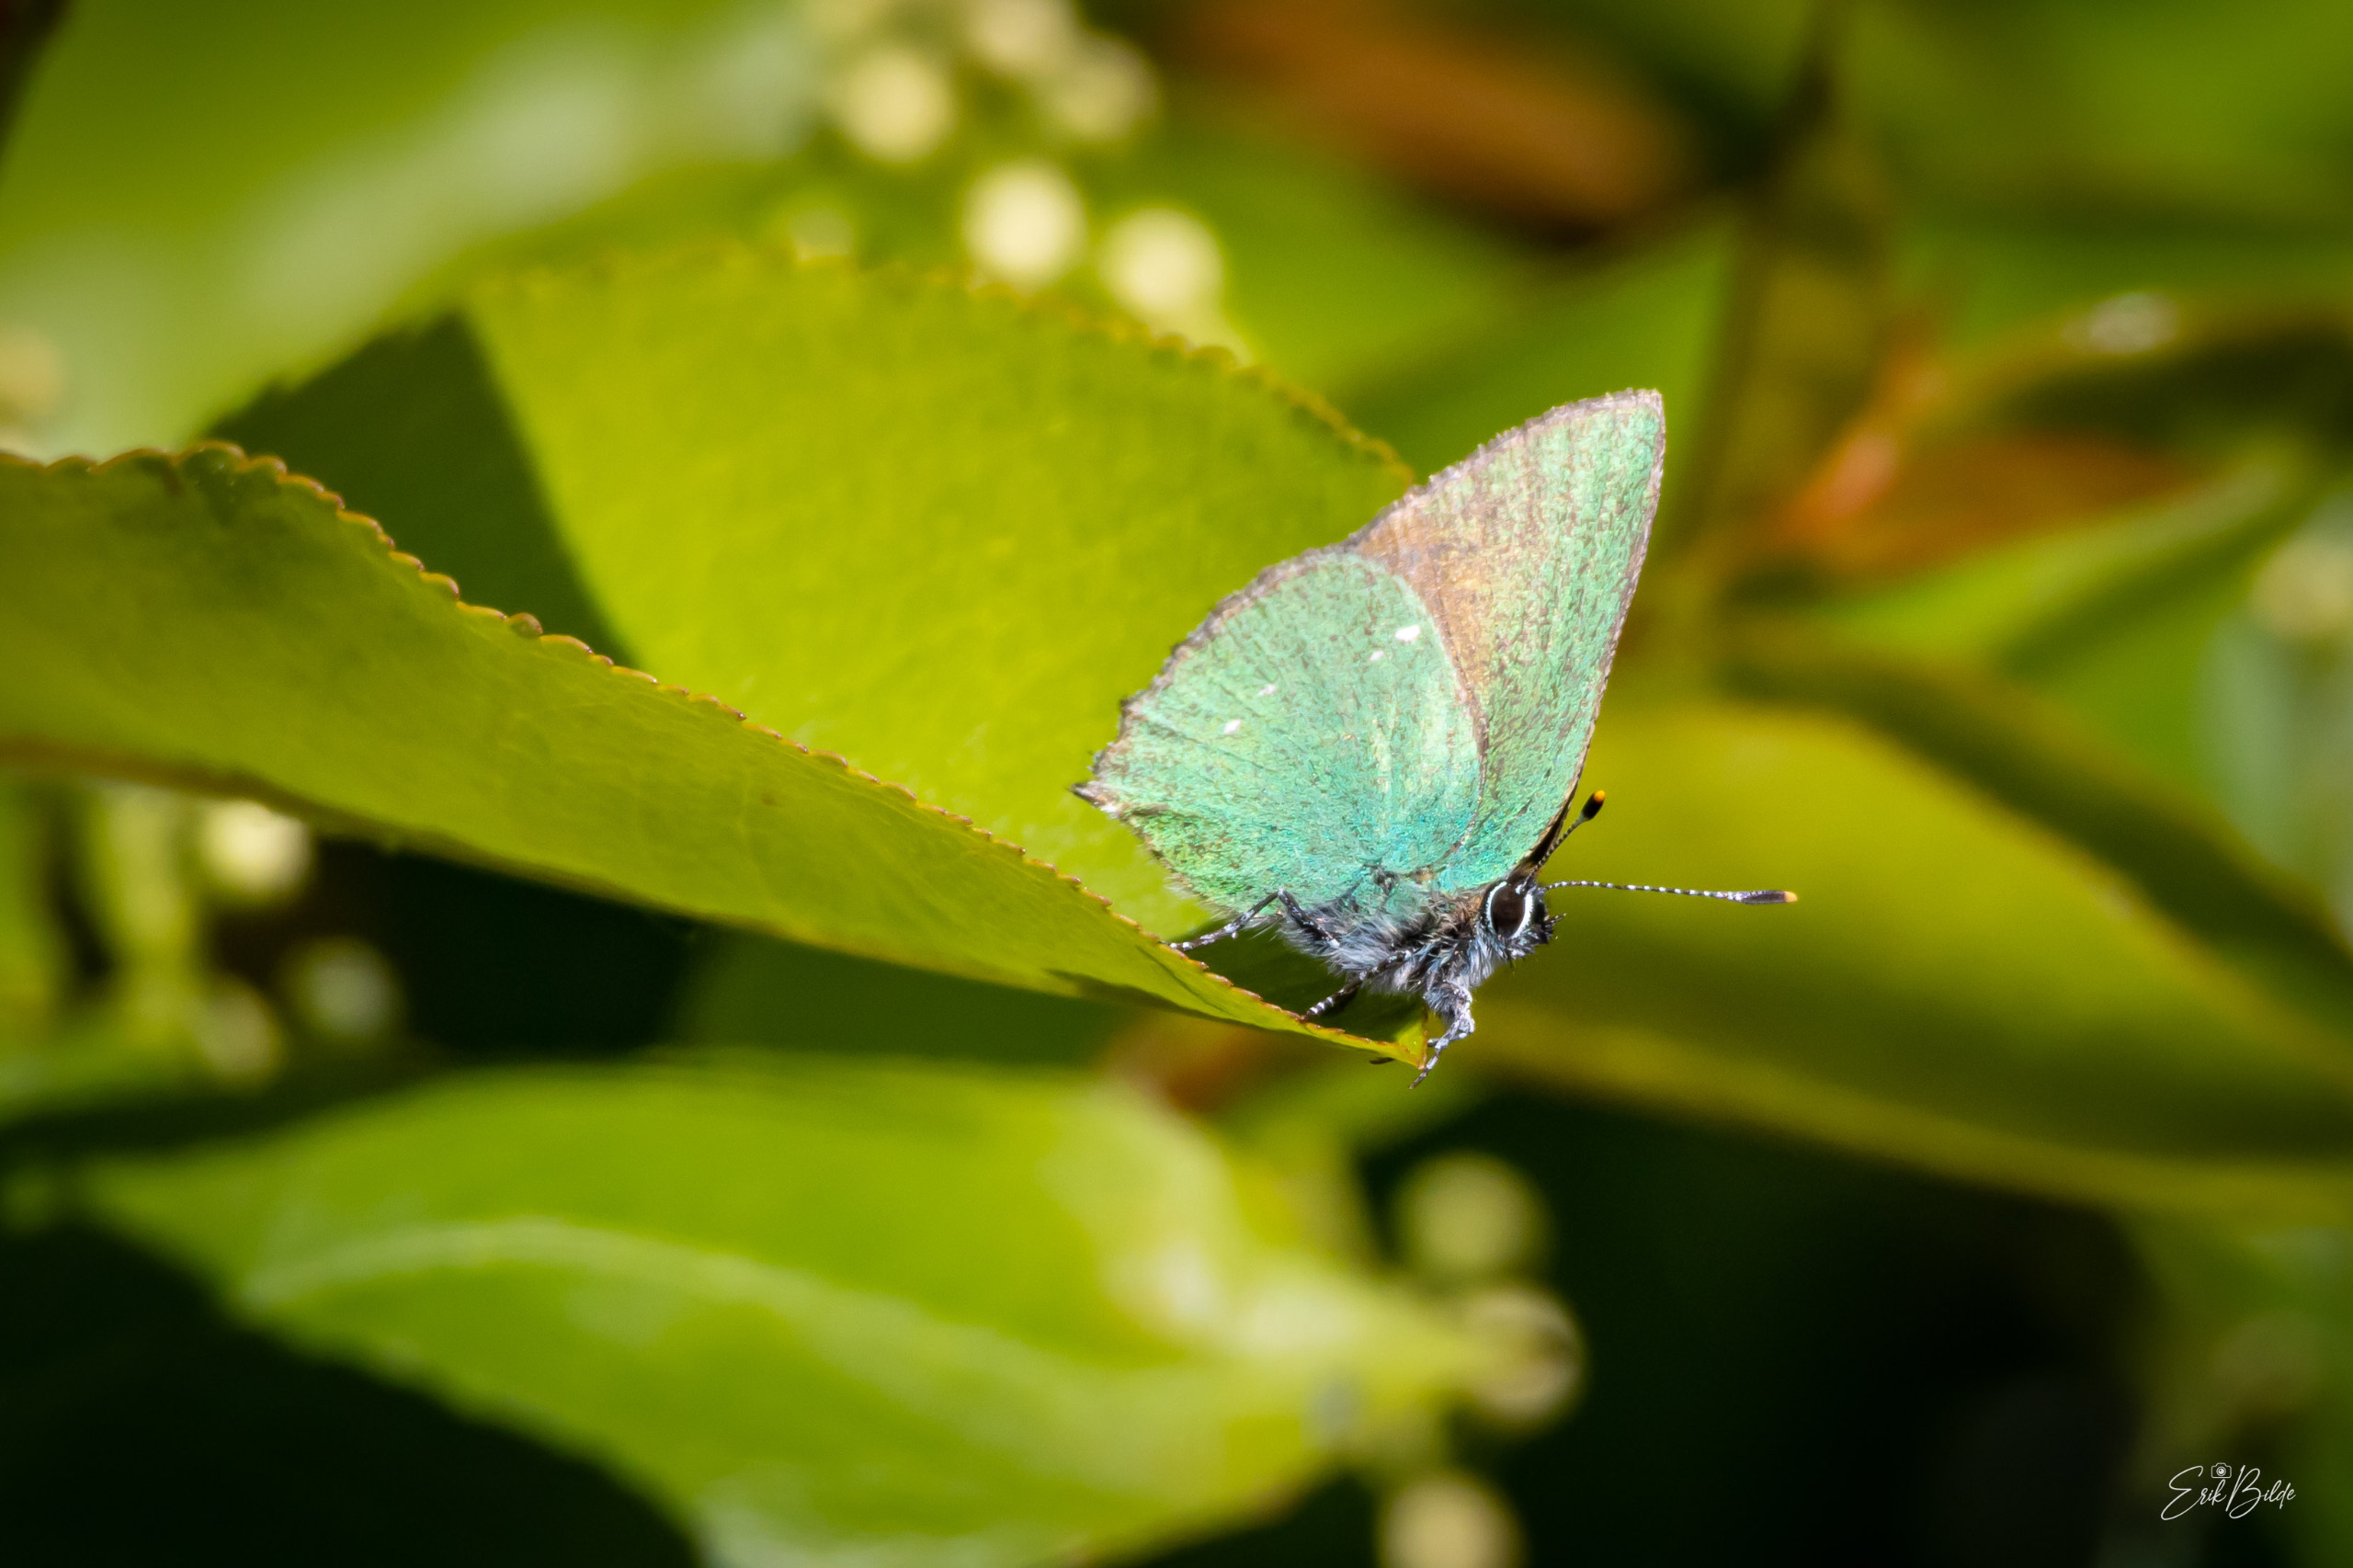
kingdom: Animalia
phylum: Arthropoda
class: Insecta
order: Lepidoptera
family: Lycaenidae
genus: Callophrys
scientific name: Callophrys rubi
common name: Grøn busksommerfugl
